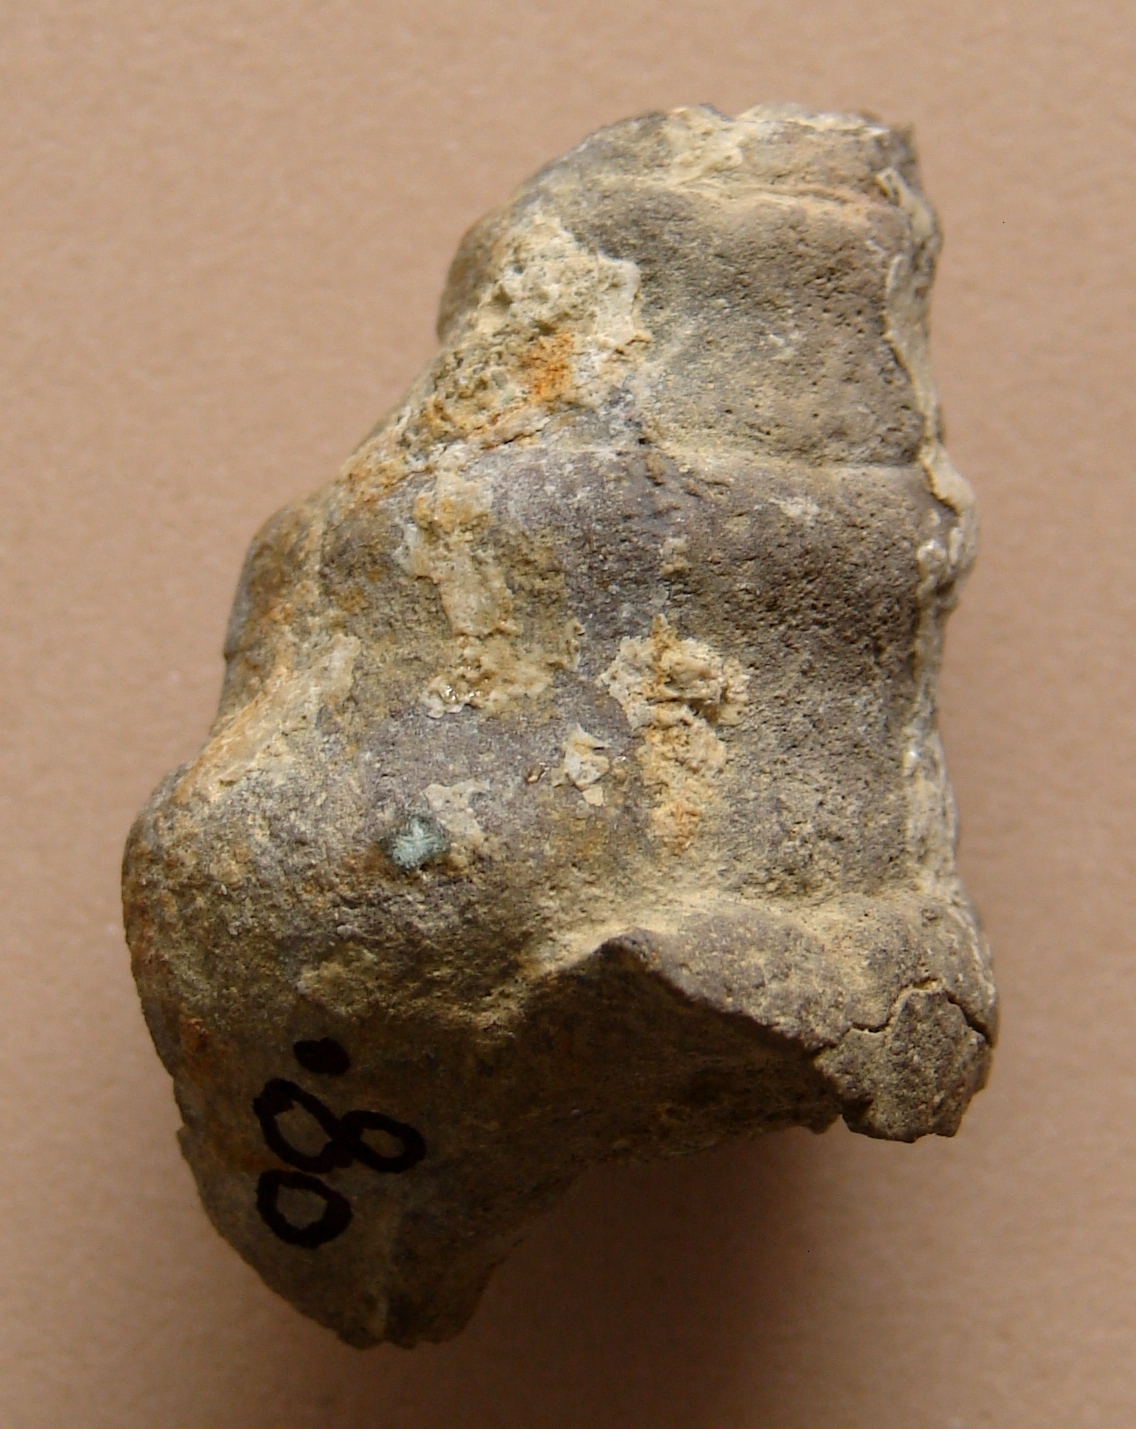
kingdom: Animalia
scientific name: Animalia
